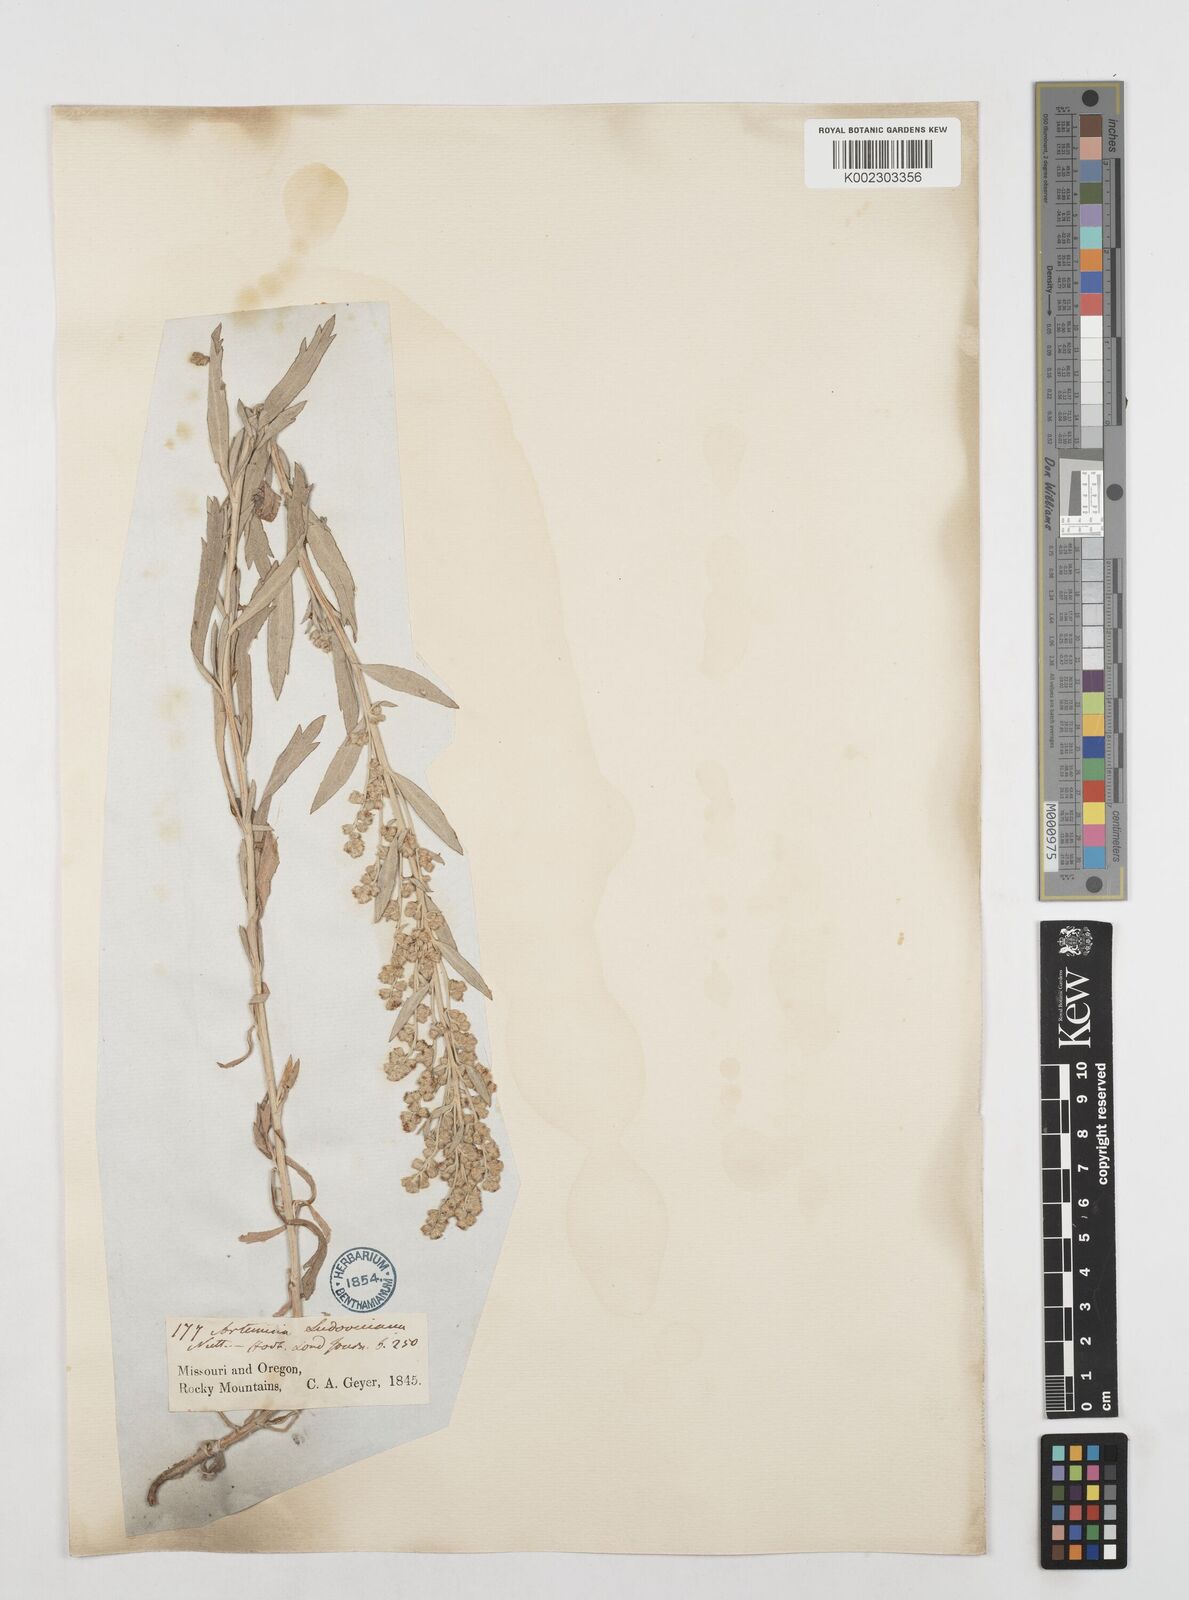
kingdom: Plantae
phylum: Tracheophyta
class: Magnoliopsida
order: Asterales
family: Asteraceae
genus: Artemisia
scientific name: Artemisia
